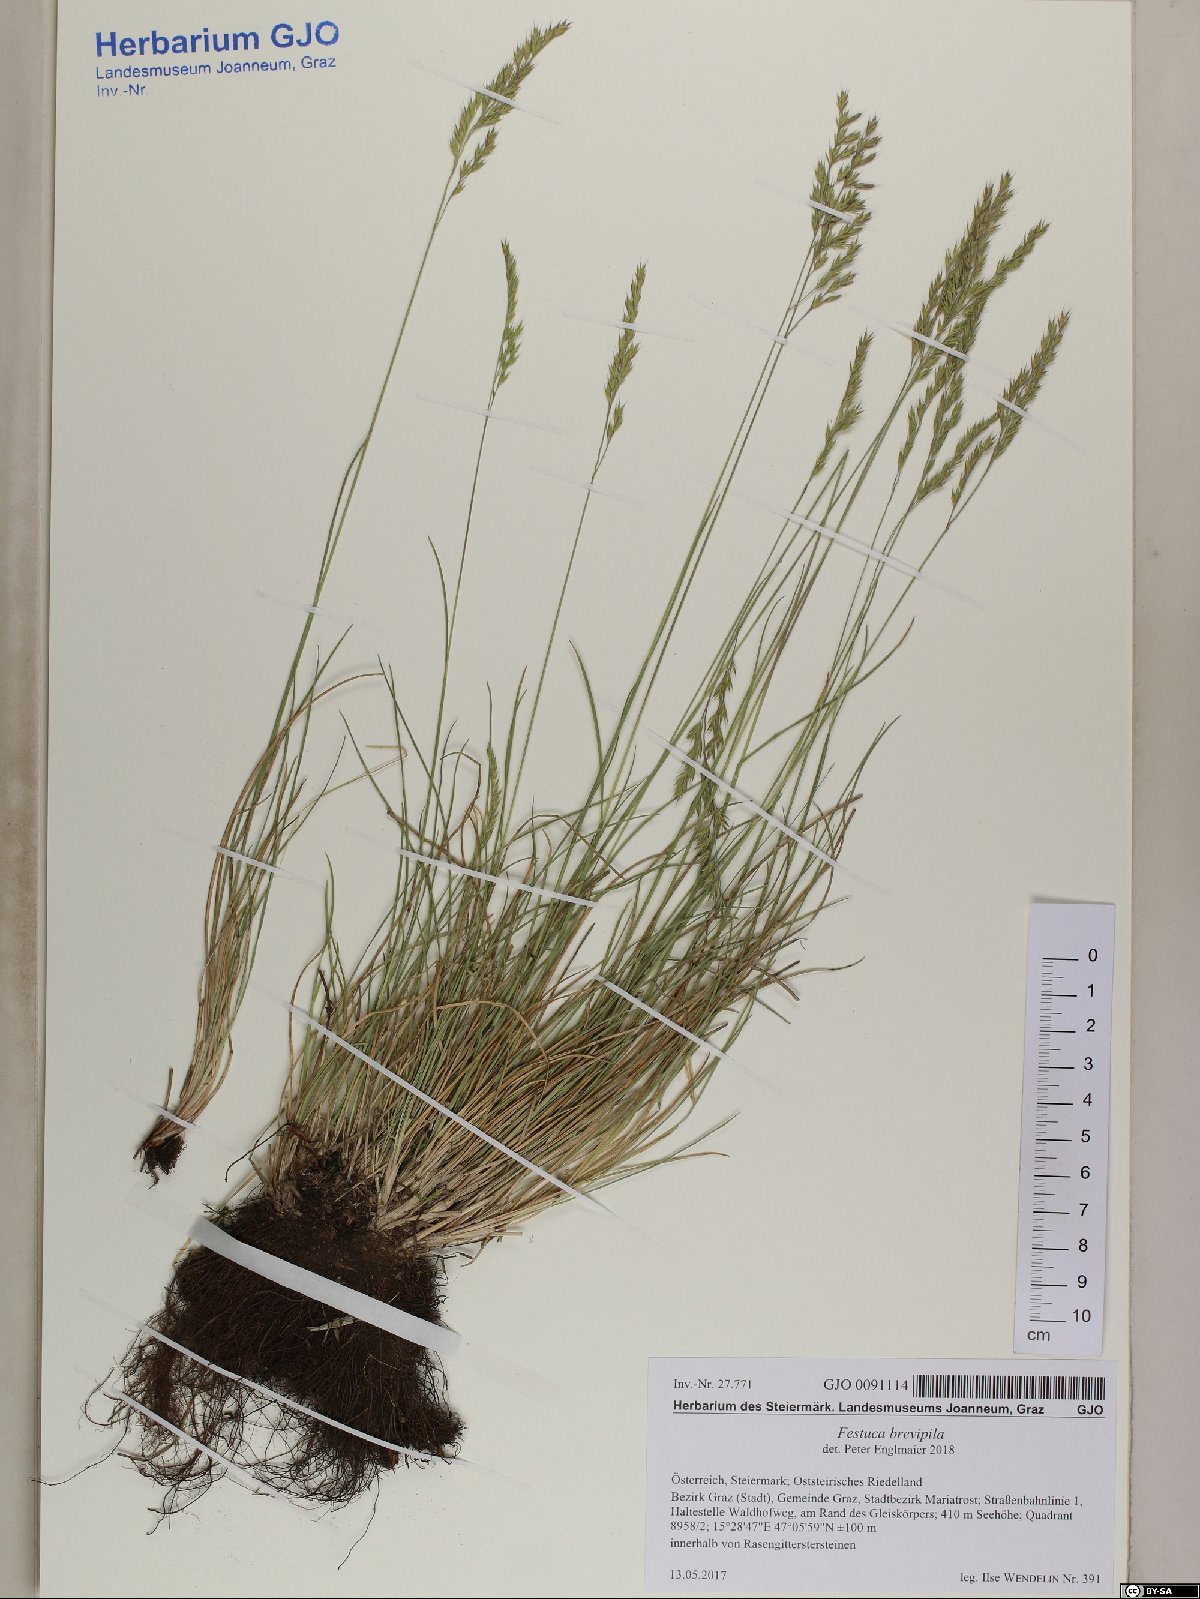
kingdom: Plantae
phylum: Tracheophyta
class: Liliopsida
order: Poales
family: Poaceae
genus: Festuca
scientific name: Festuca trachyphylla
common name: Hard fescue
